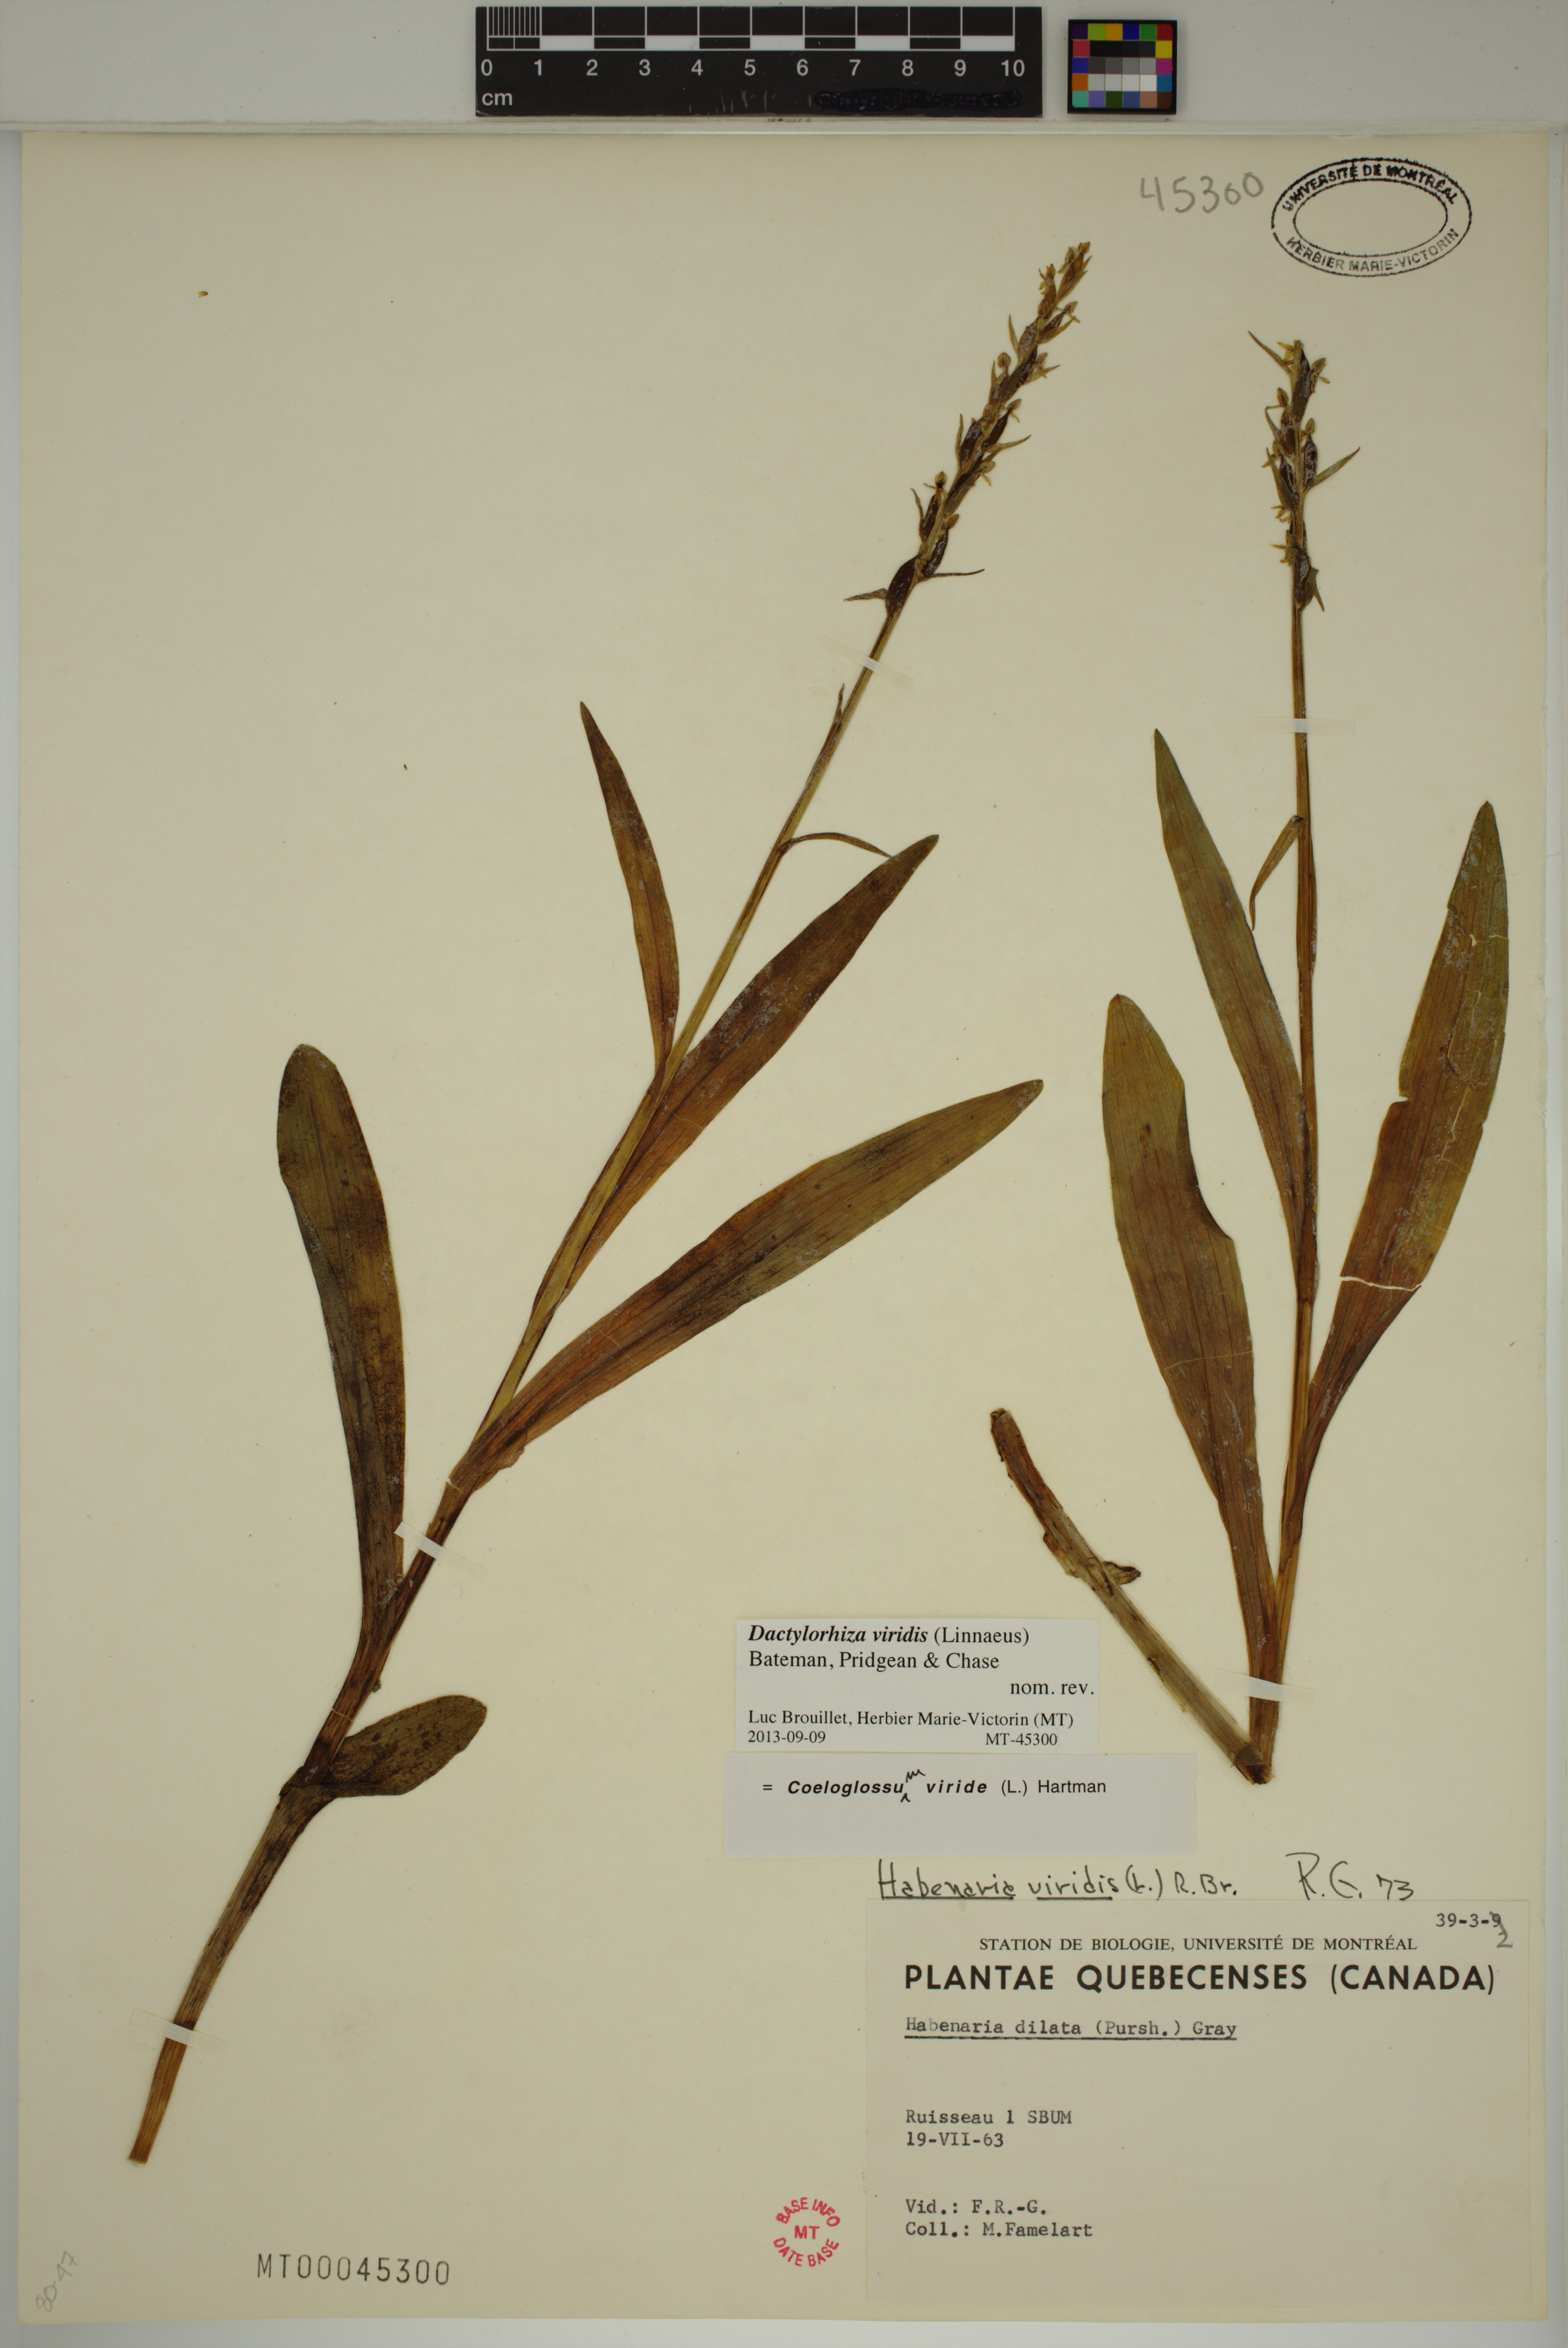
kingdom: Plantae
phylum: Tracheophyta
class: Liliopsida
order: Asparagales
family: Orchidaceae
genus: Dactylorhiza
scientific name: Dactylorhiza viridis
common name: Longbract frog orchid
